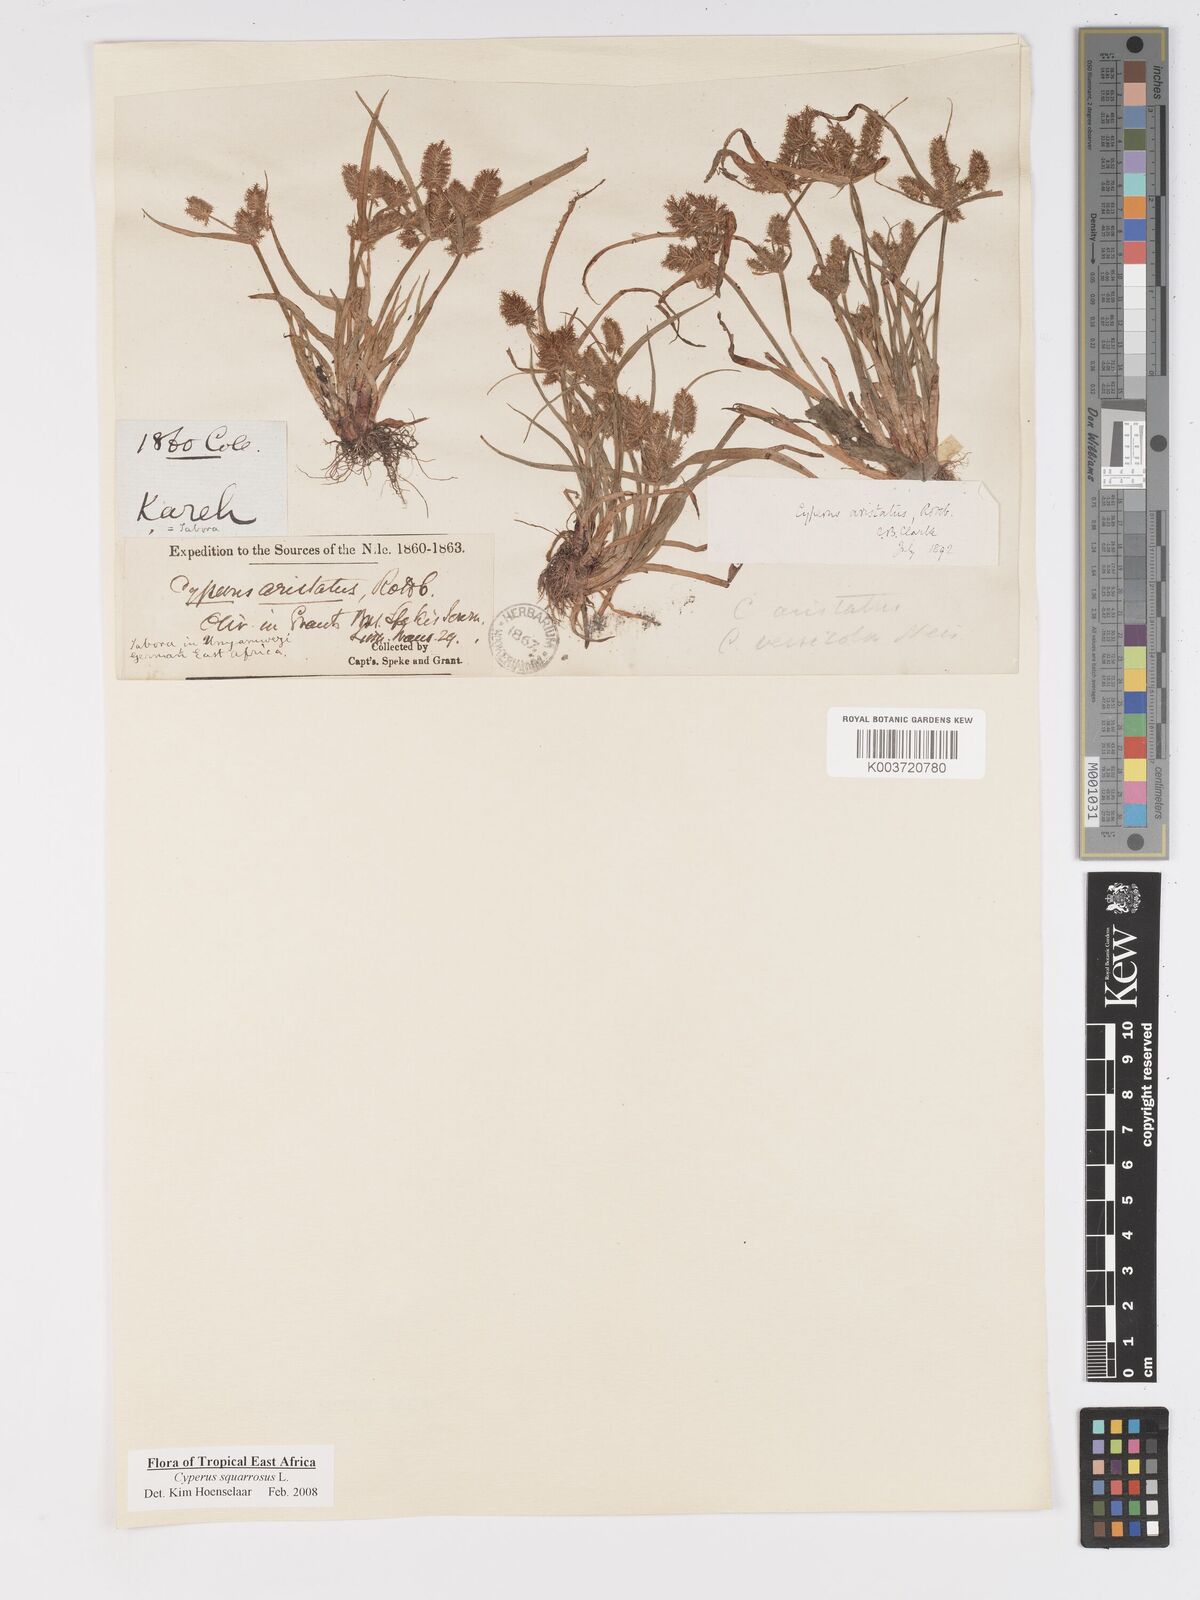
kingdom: Plantae
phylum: Tracheophyta
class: Liliopsida
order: Poales
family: Cyperaceae
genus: Cyperus
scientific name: Cyperus squarrosus
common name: Awned cyperus
